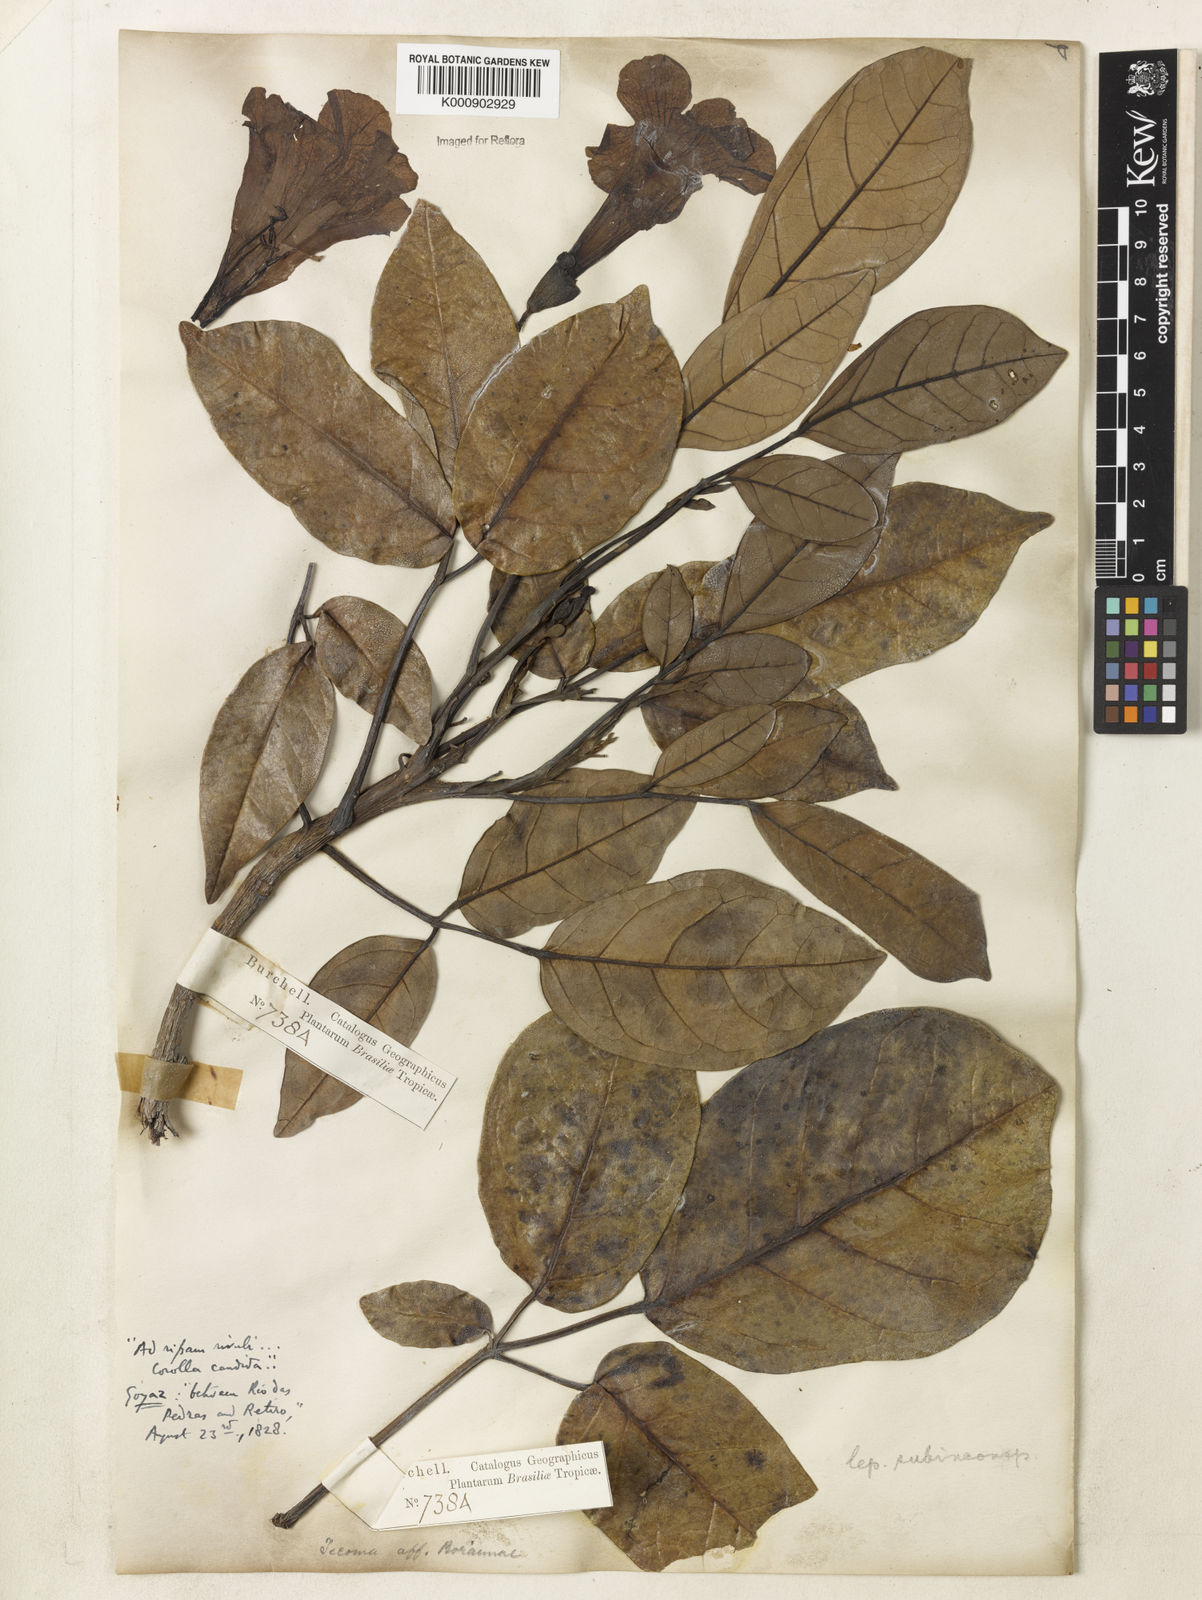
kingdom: Plantae
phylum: Tracheophyta
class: Magnoliopsida
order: Lamiales
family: Bignoniaceae
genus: Tabebuia
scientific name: Tabebuia insignis
